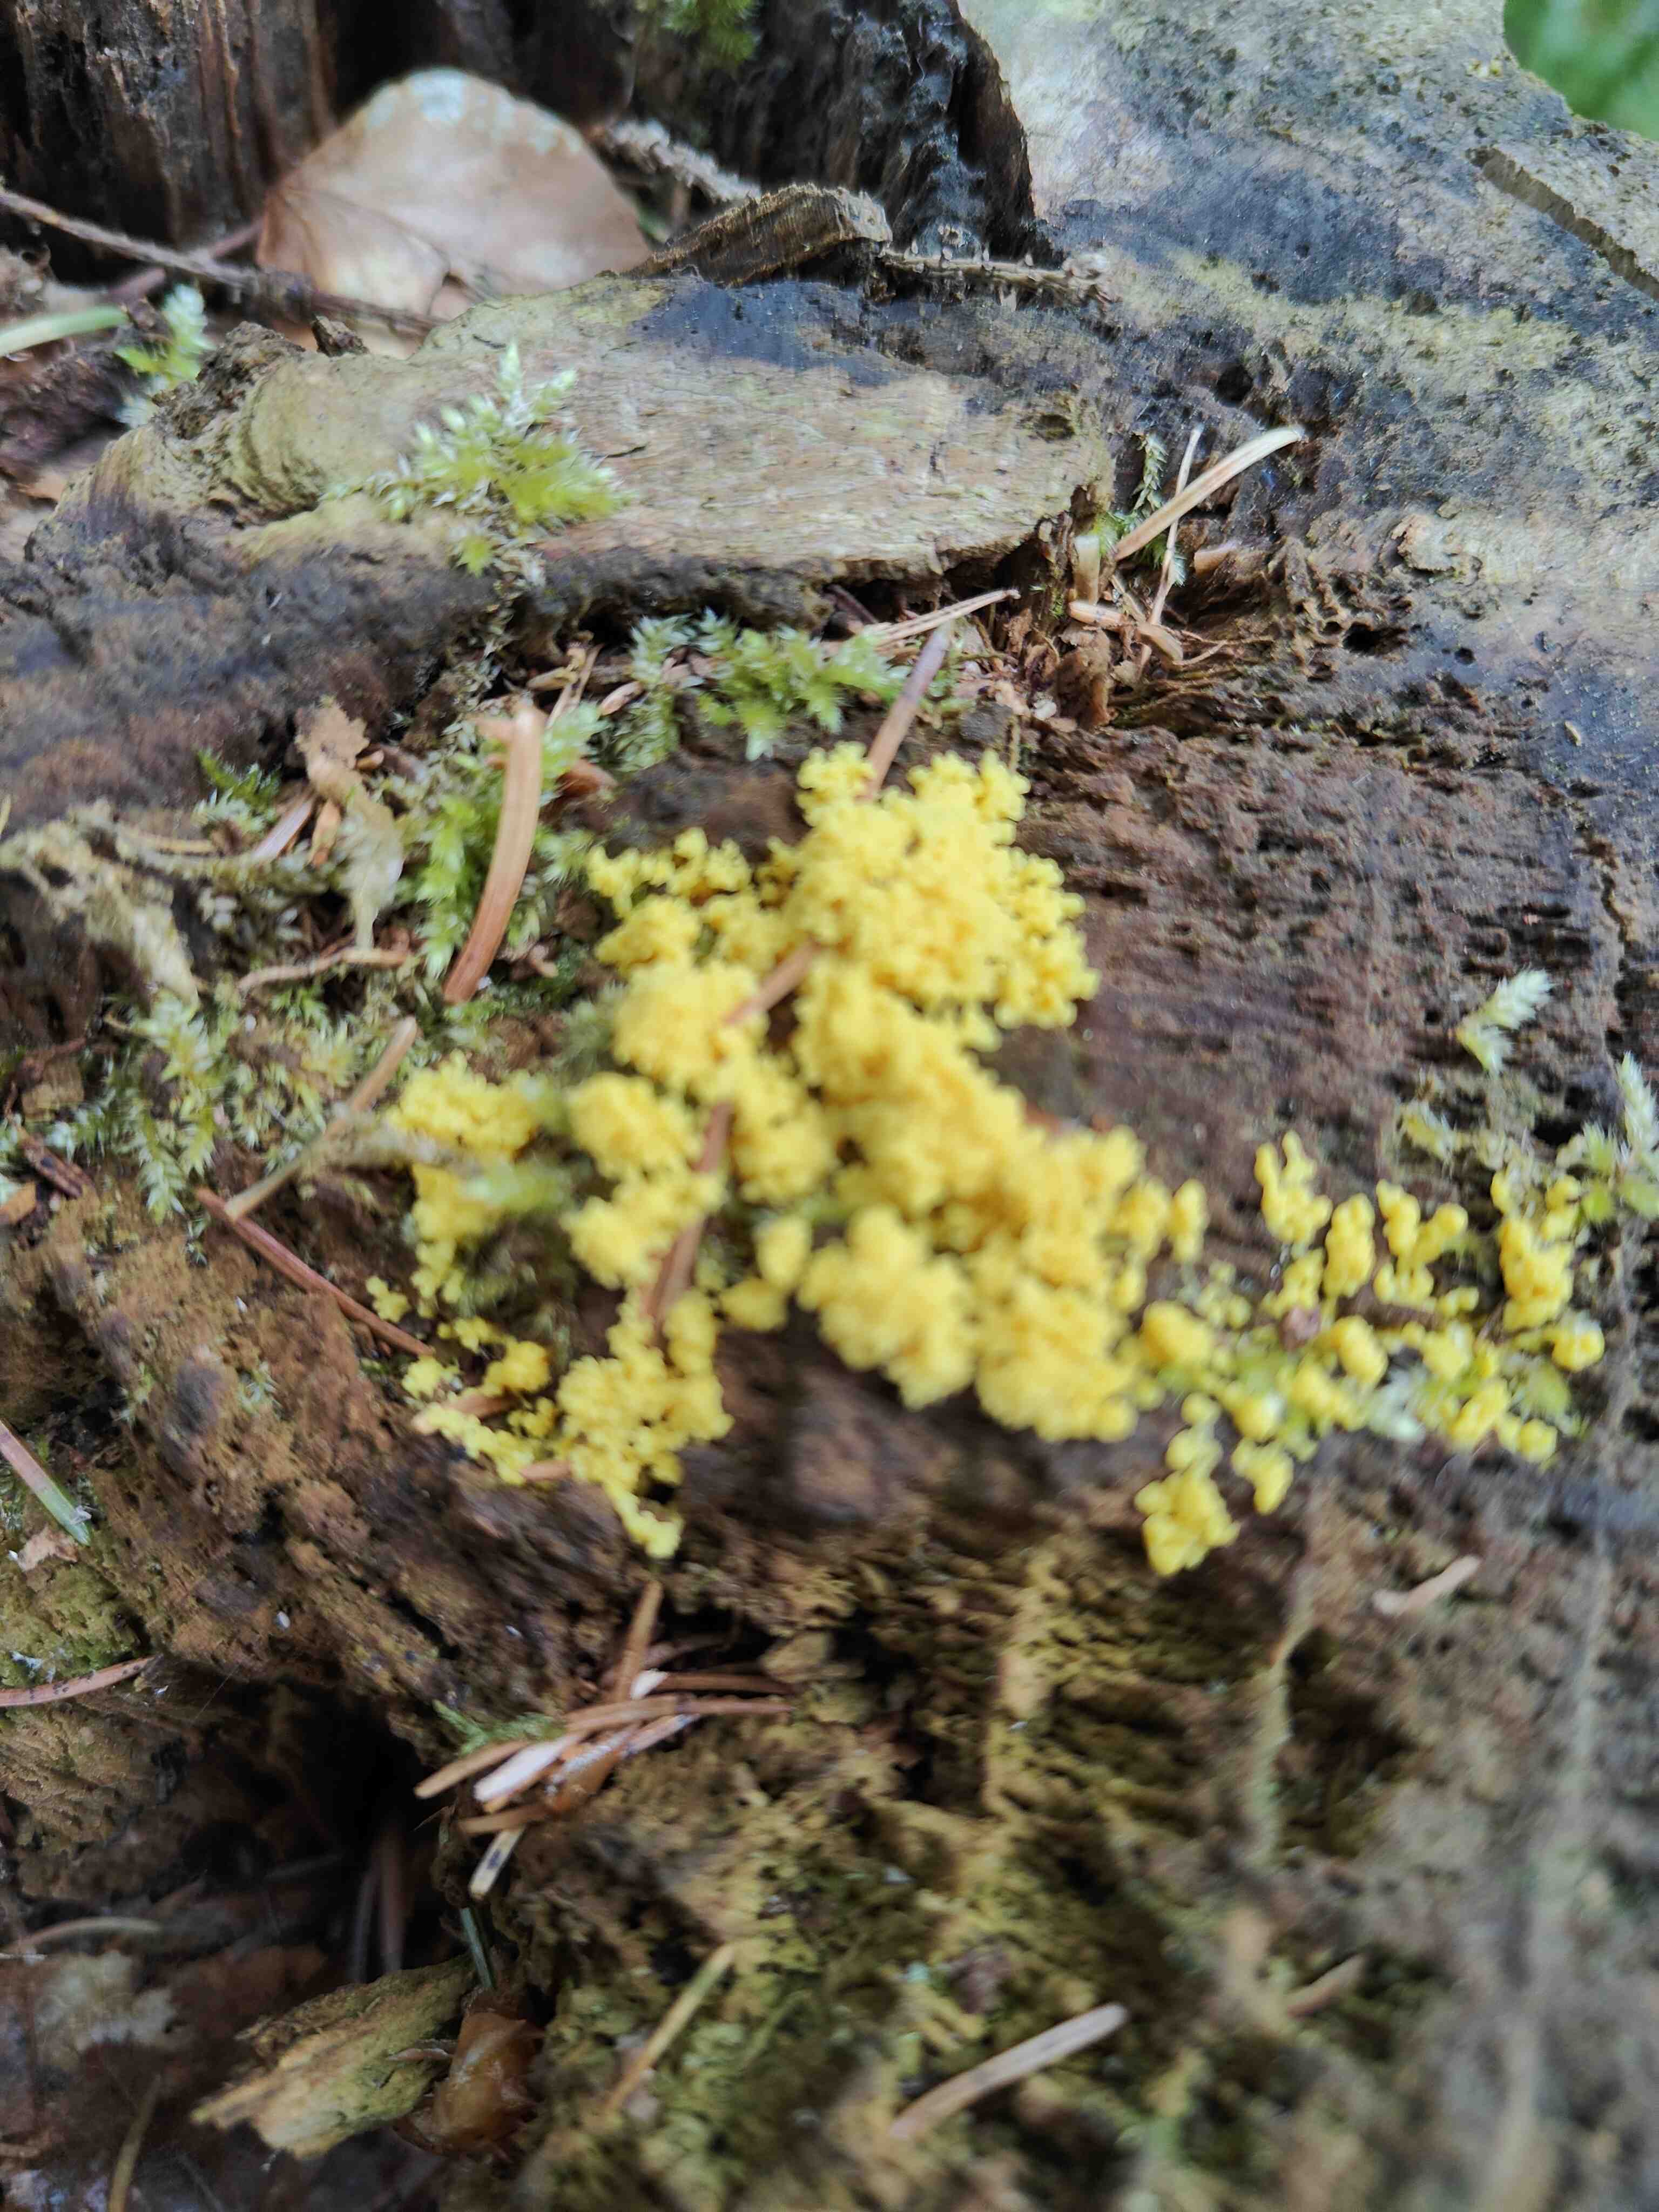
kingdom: Protozoa
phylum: Mycetozoa
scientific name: Mycetozoa
